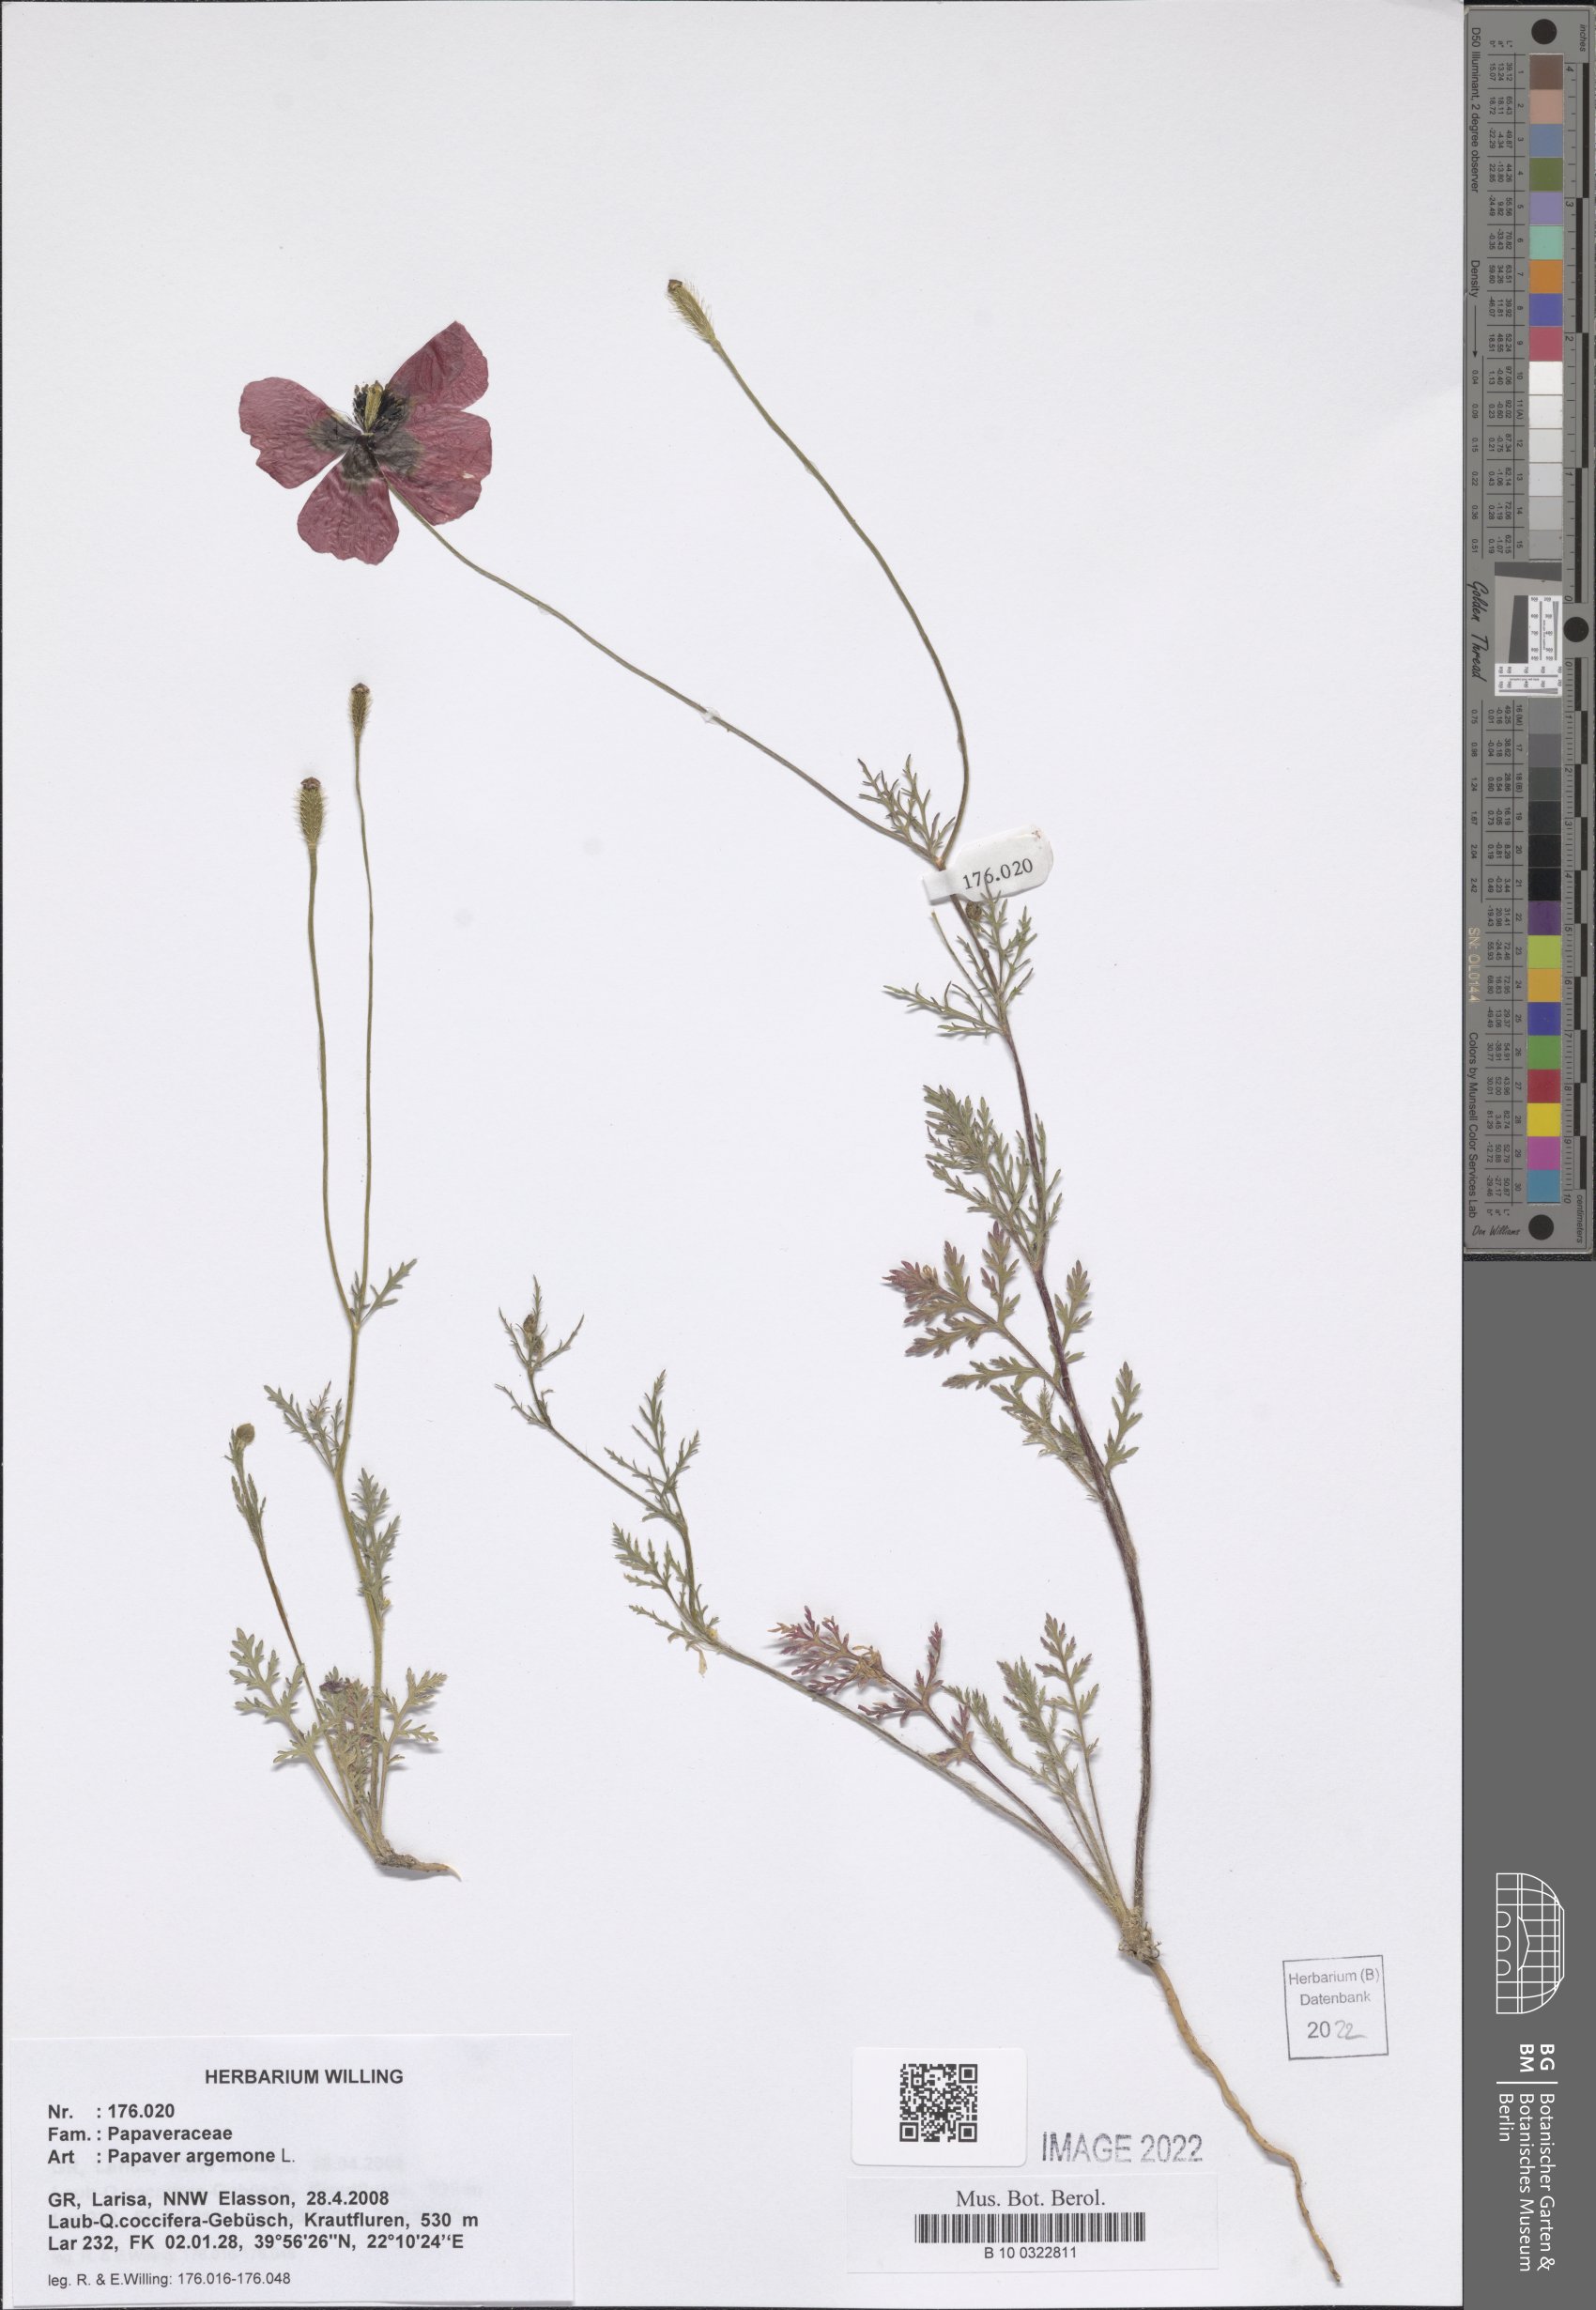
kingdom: Plantae
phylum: Tracheophyta
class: Magnoliopsida
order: Ranunculales
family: Papaveraceae
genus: Roemeria
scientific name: Roemeria argemone
